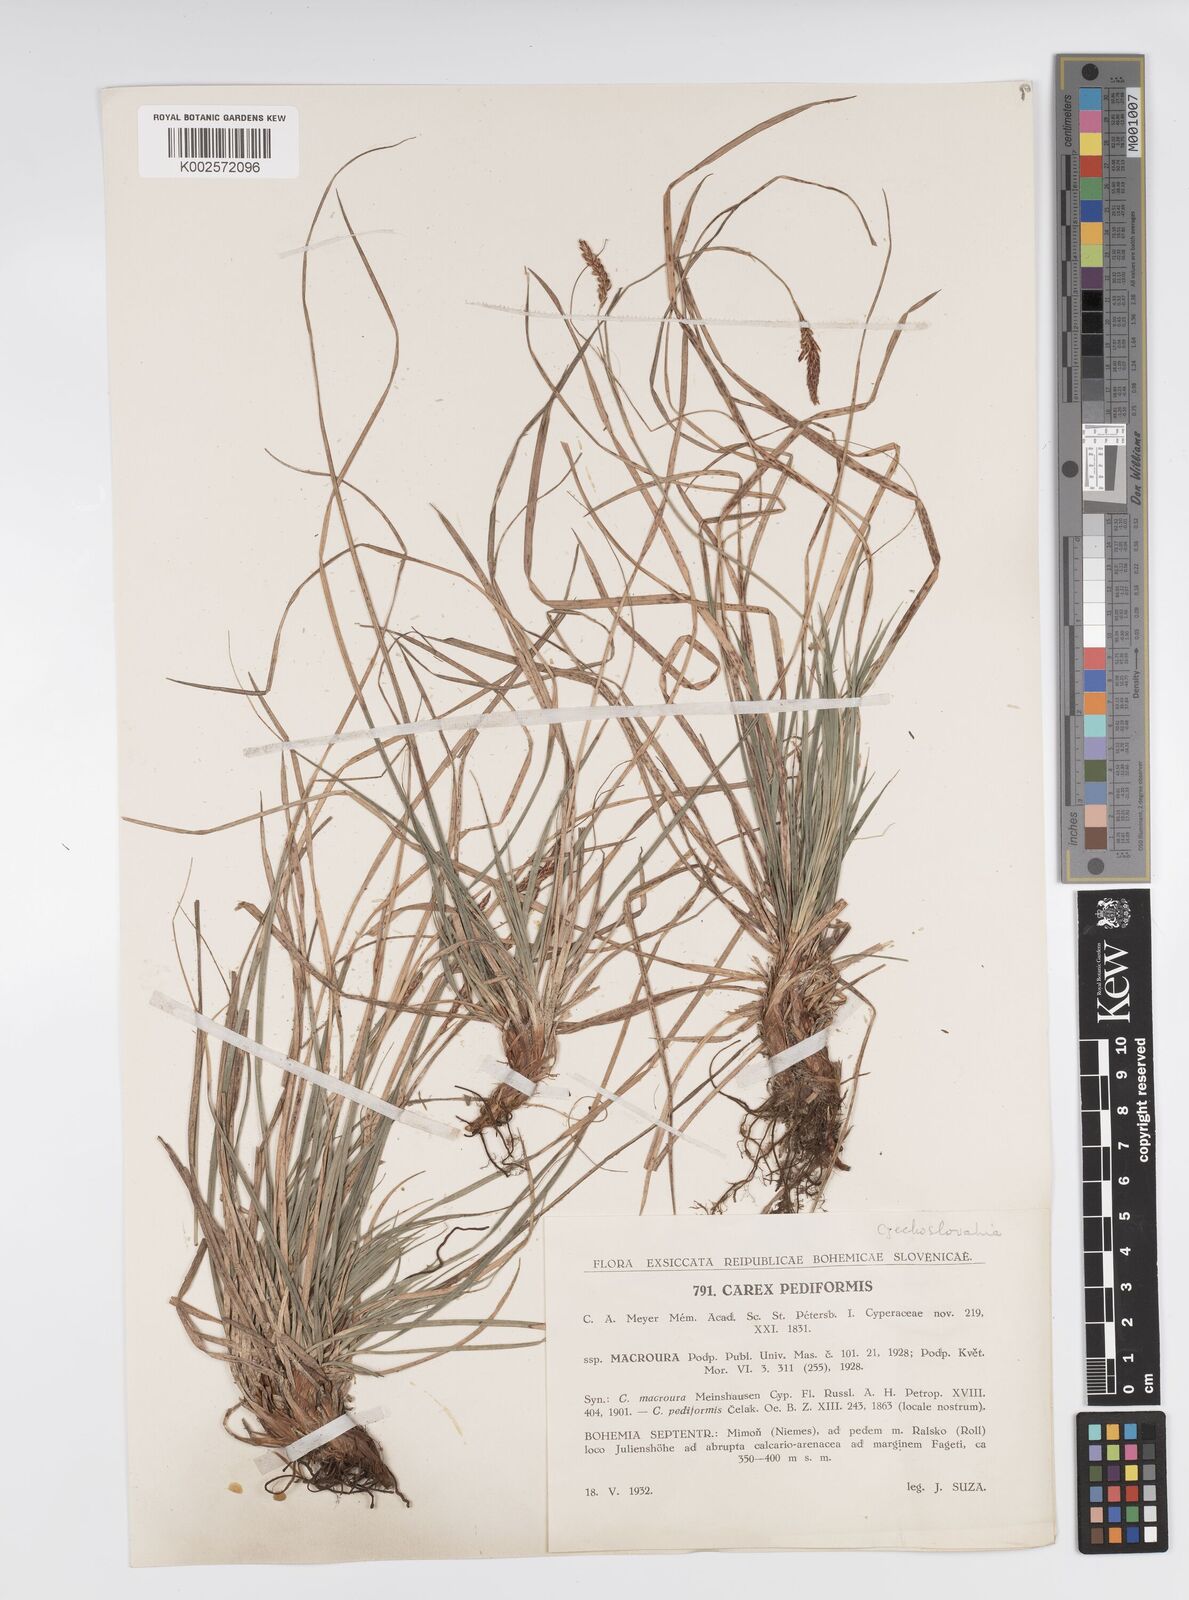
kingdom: Plantae
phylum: Tracheophyta
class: Liliopsida
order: Poales
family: Cyperaceae
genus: Carex
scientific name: Carex pediformis
